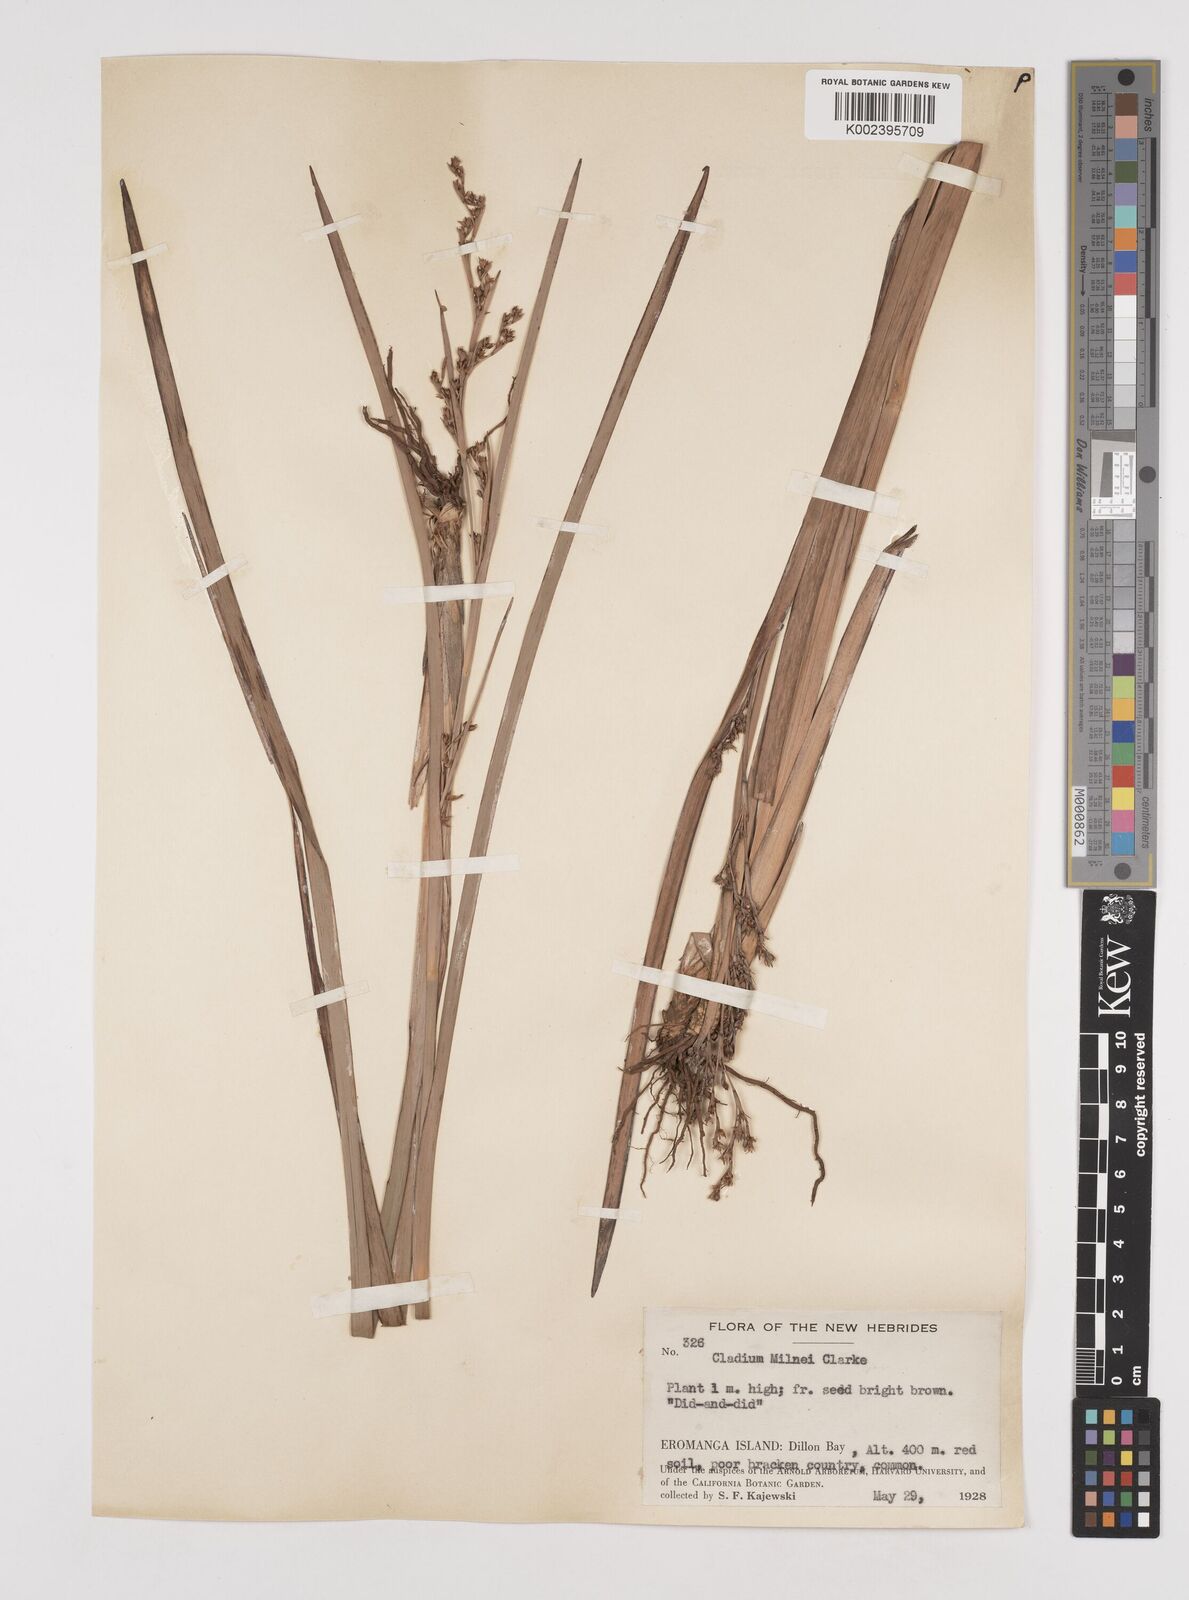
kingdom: Plantae
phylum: Tracheophyta
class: Liliopsida
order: Poales
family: Cyperaceae
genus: Machaerina
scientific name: Machaerina milnei
